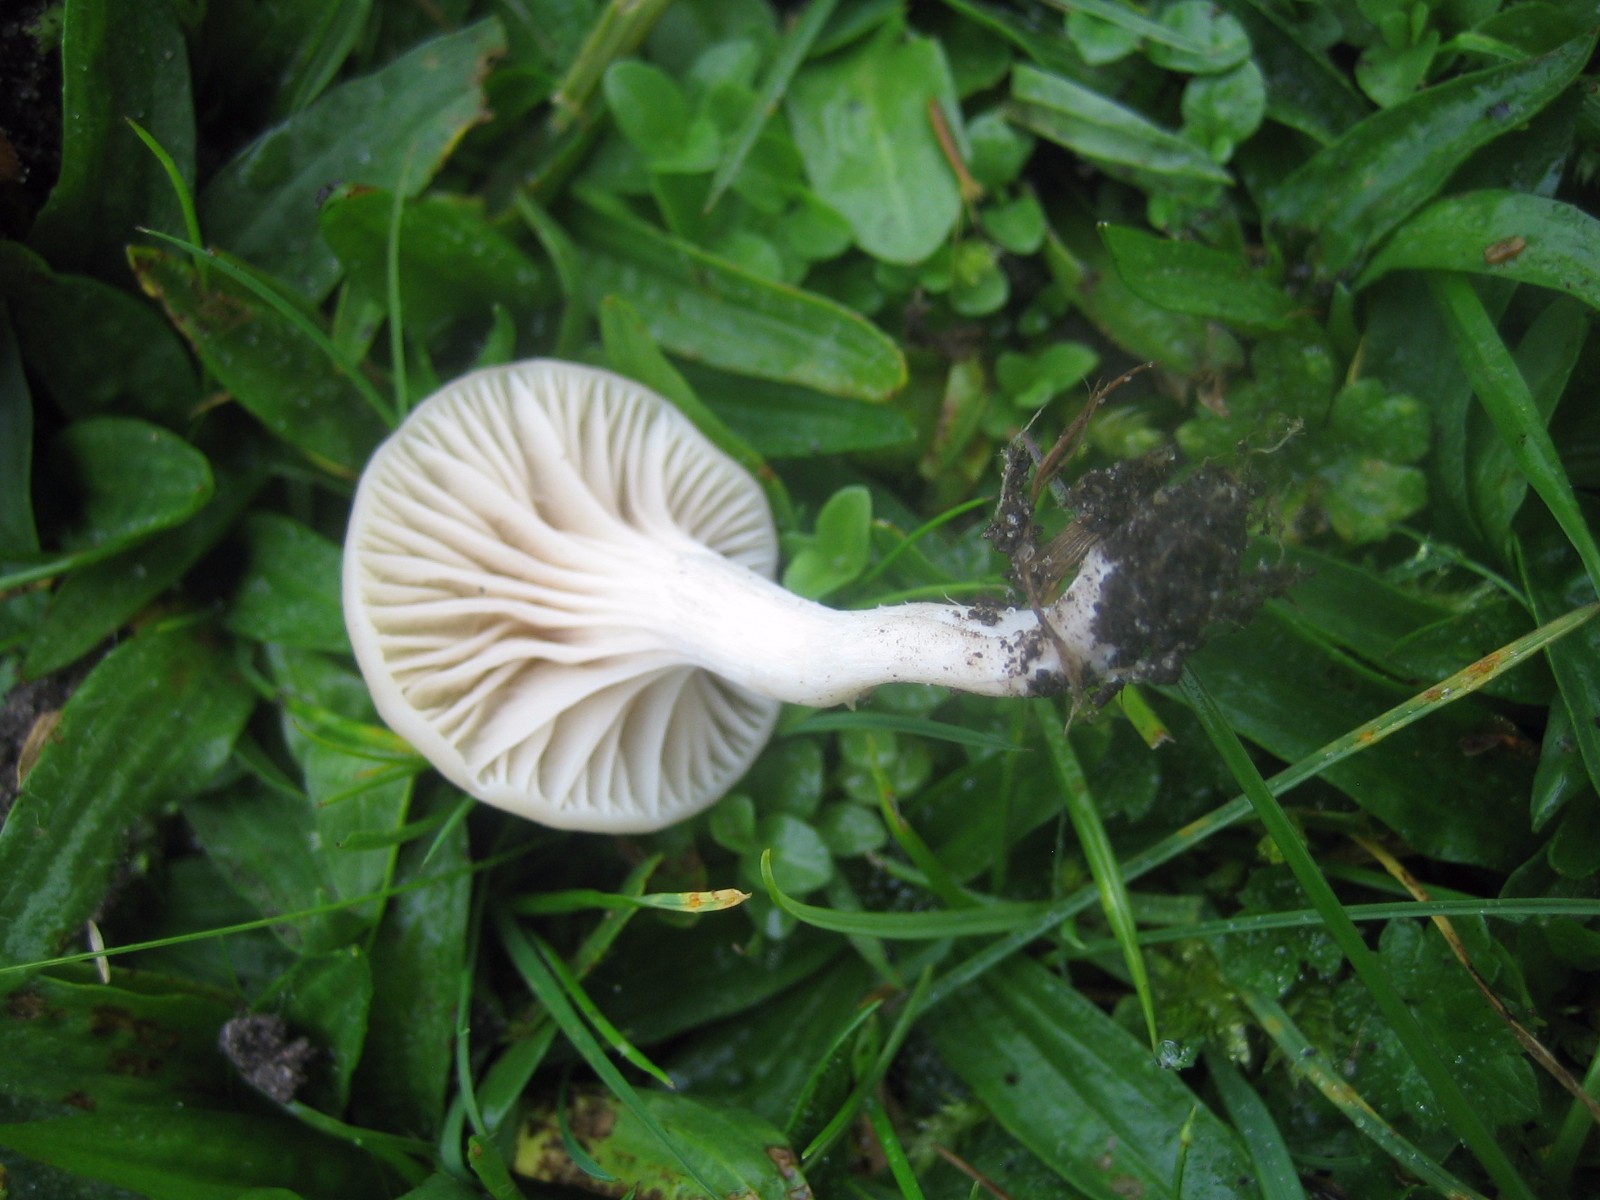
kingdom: Fungi
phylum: Basidiomycota
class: Agaricomycetes
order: Agaricales
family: Hygrophoraceae
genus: Cuphophyllus
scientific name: Cuphophyllus virgineus
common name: snehvid vokshat
